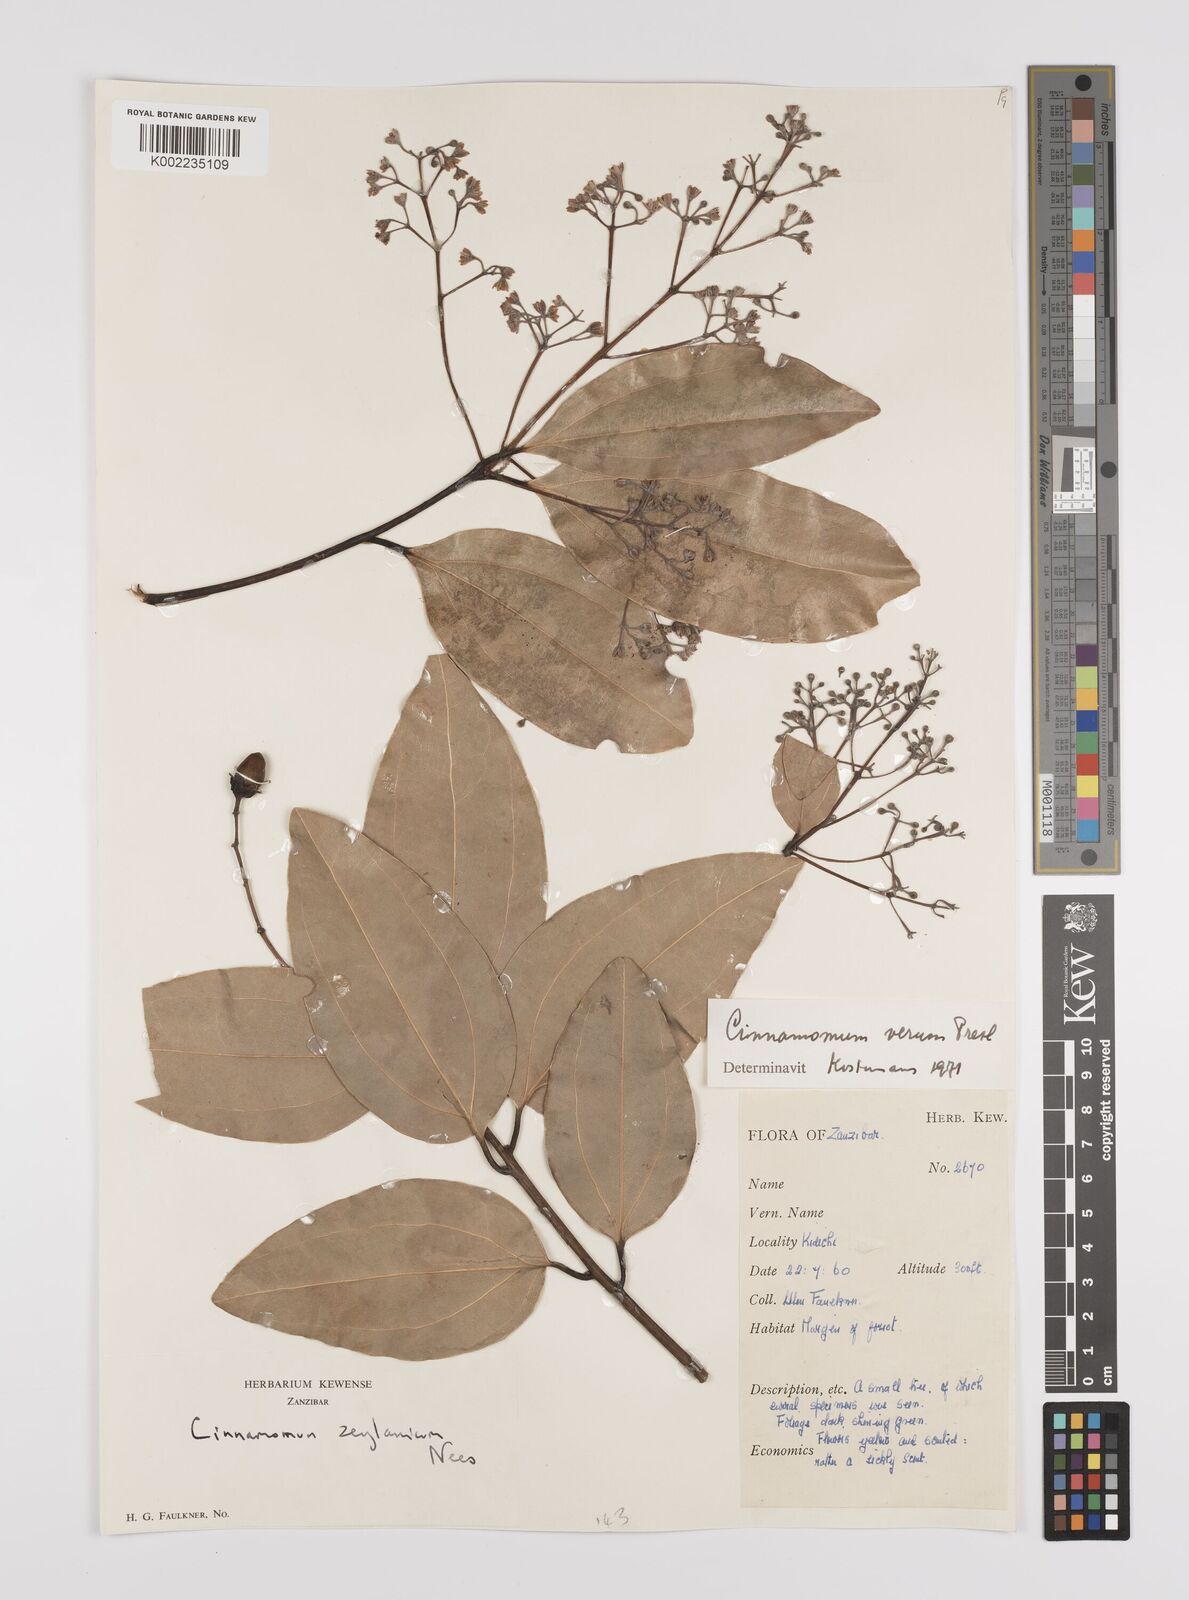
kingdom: Plantae
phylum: Tracheophyta
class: Magnoliopsida
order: Laurales
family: Lauraceae
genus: Cinnamomum
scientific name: Cinnamomum verum
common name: Cinnamon
